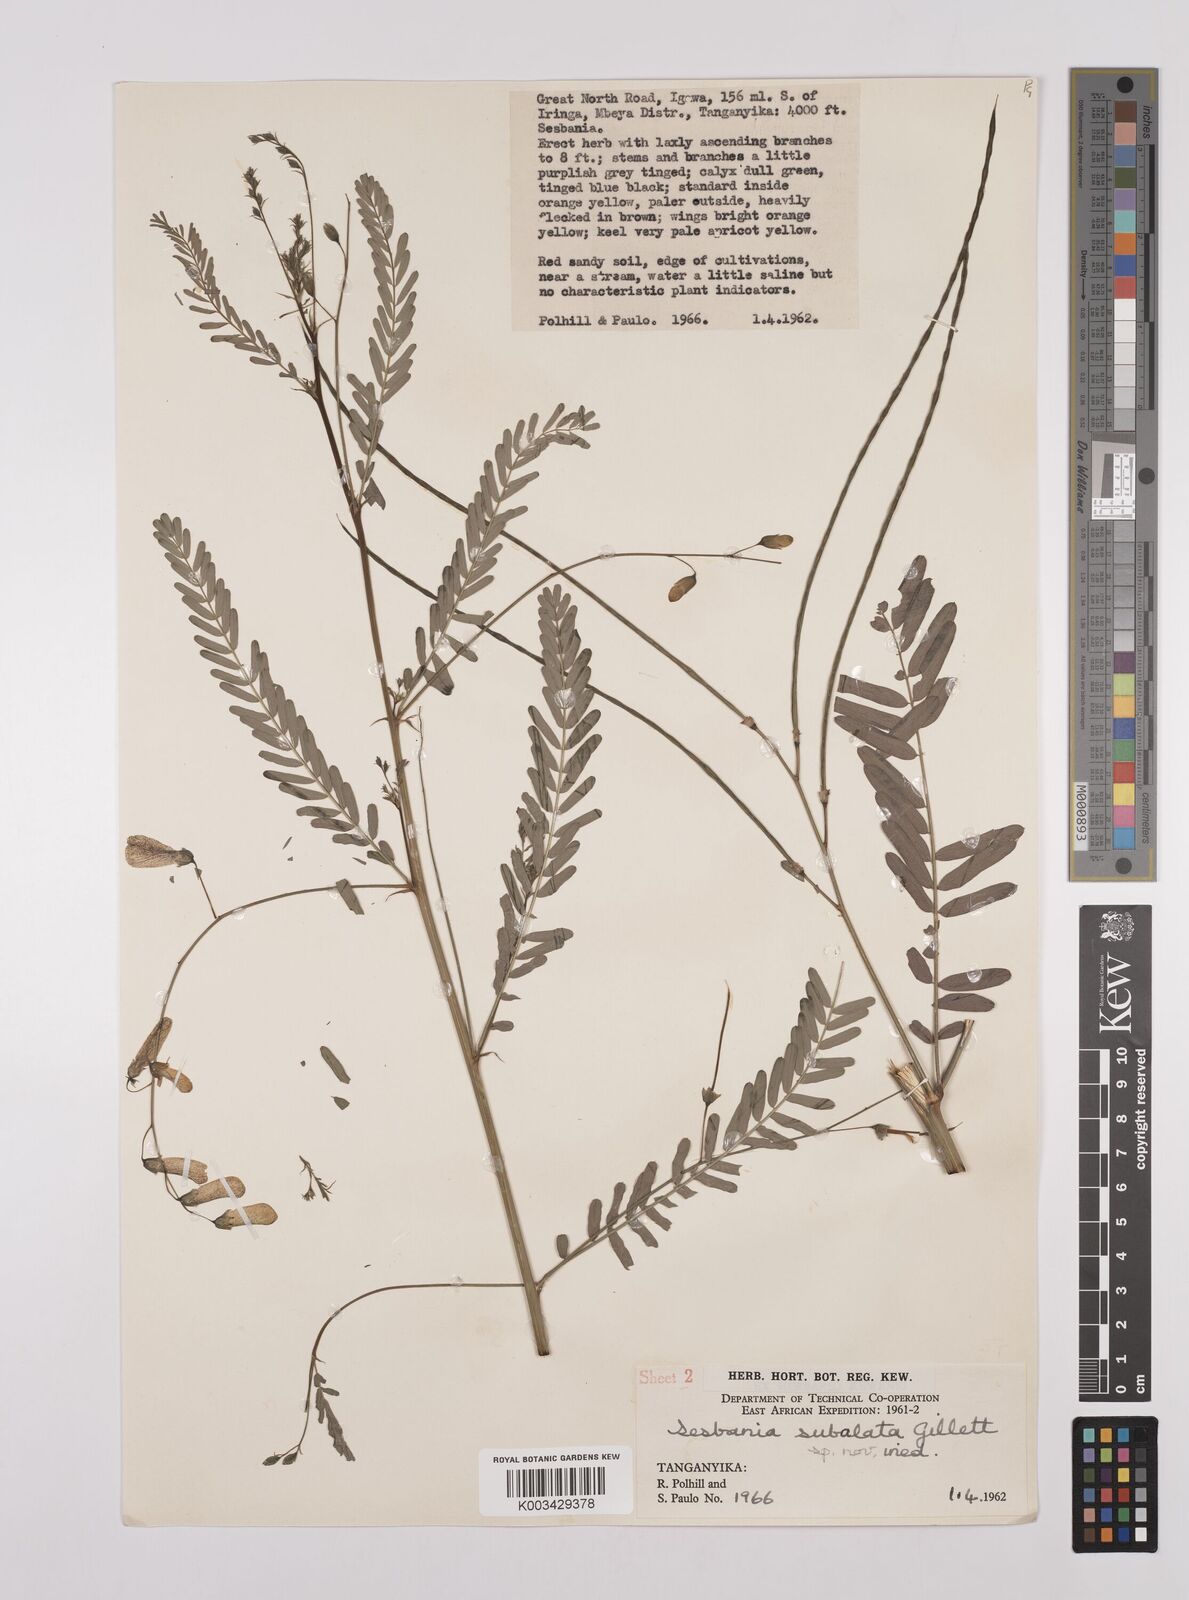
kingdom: Plantae
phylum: Tracheophyta
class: Magnoliopsida
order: Fabales
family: Fabaceae
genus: Sesbania
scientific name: Sesbania subalata
